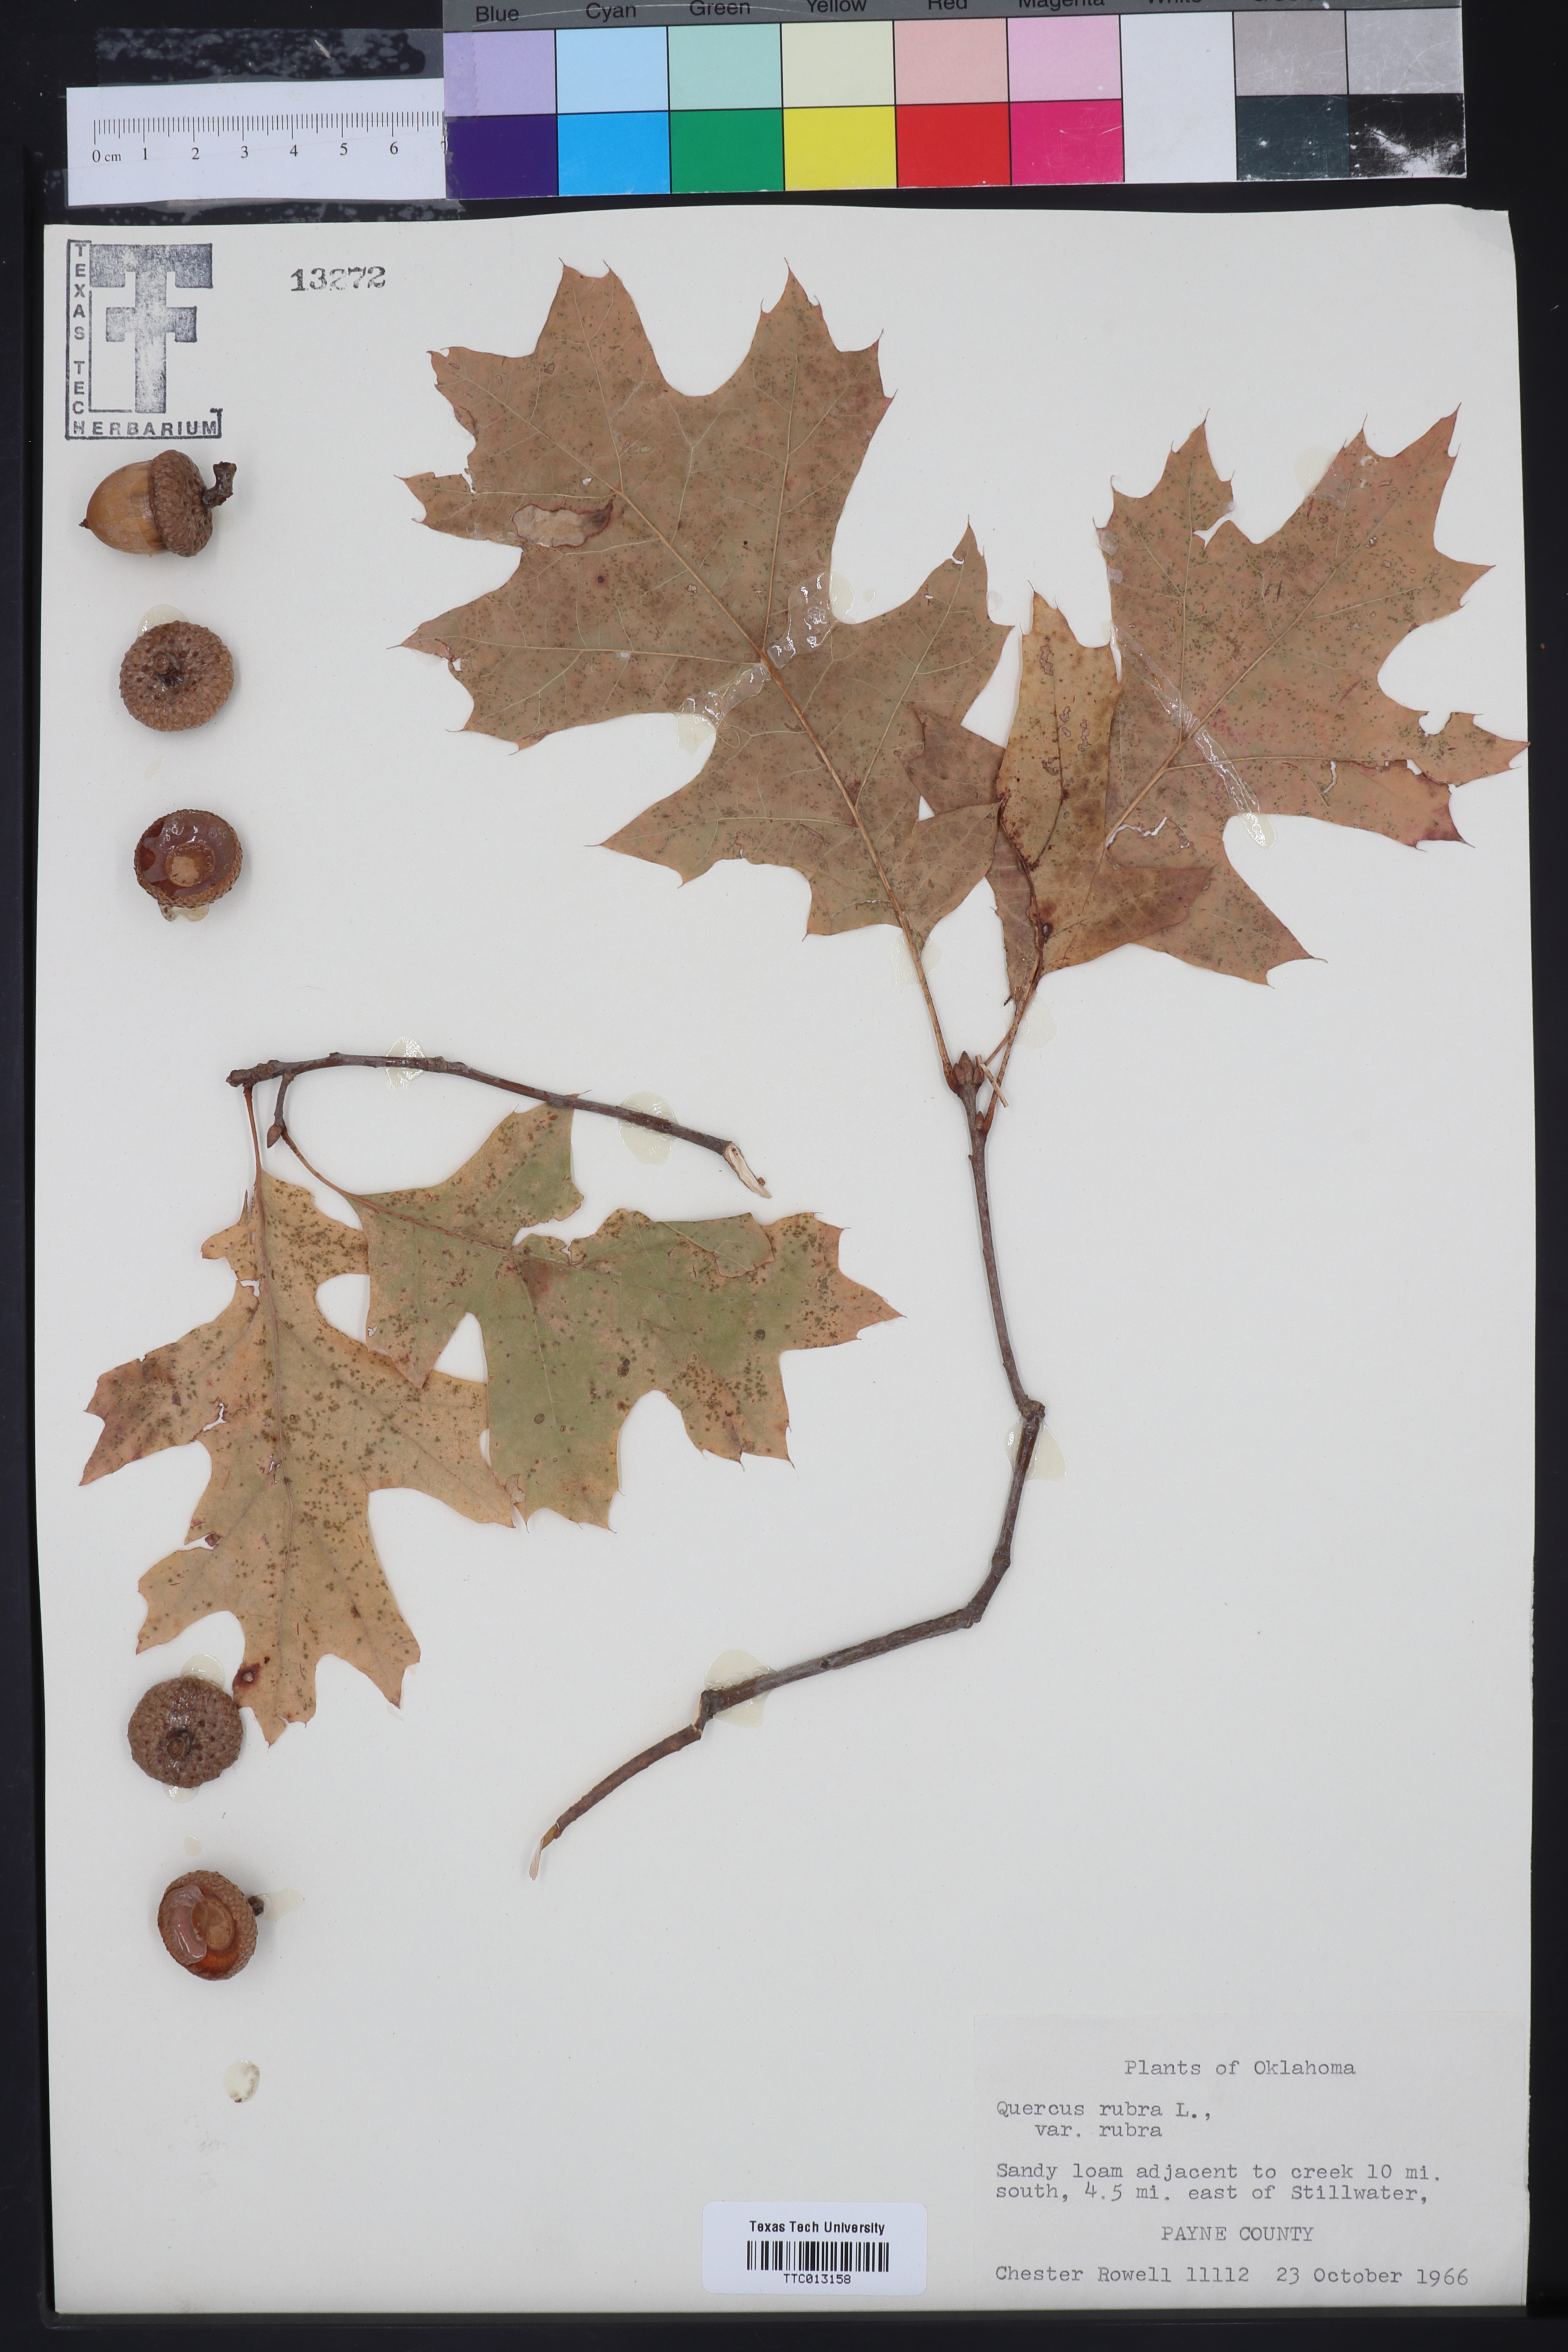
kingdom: Plantae
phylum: Tracheophyta
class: Magnoliopsida
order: Fagales
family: Fagaceae
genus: Quercus
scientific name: Quercus rubra
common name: Red oak
